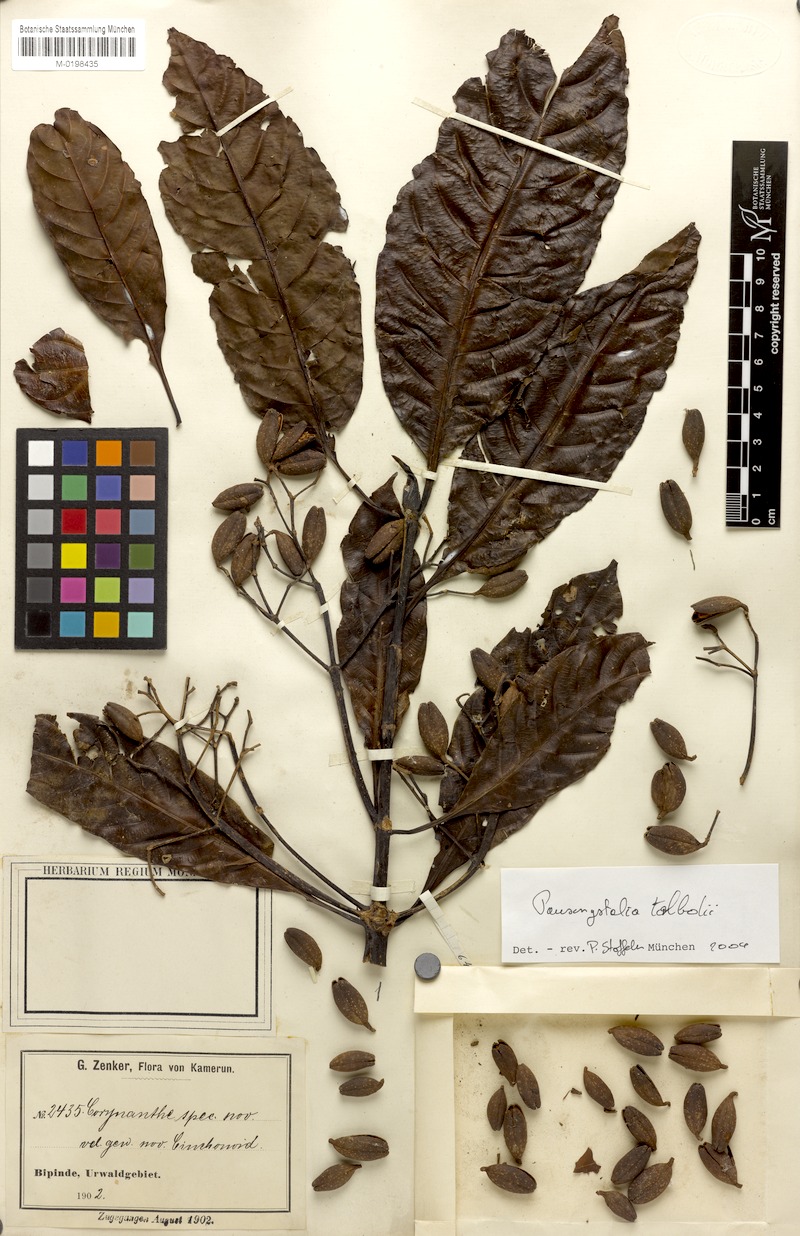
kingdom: Plantae
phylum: Tracheophyta
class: Magnoliopsida
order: Gentianales
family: Rubiaceae
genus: Corynanthe
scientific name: Corynanthe talbotii
